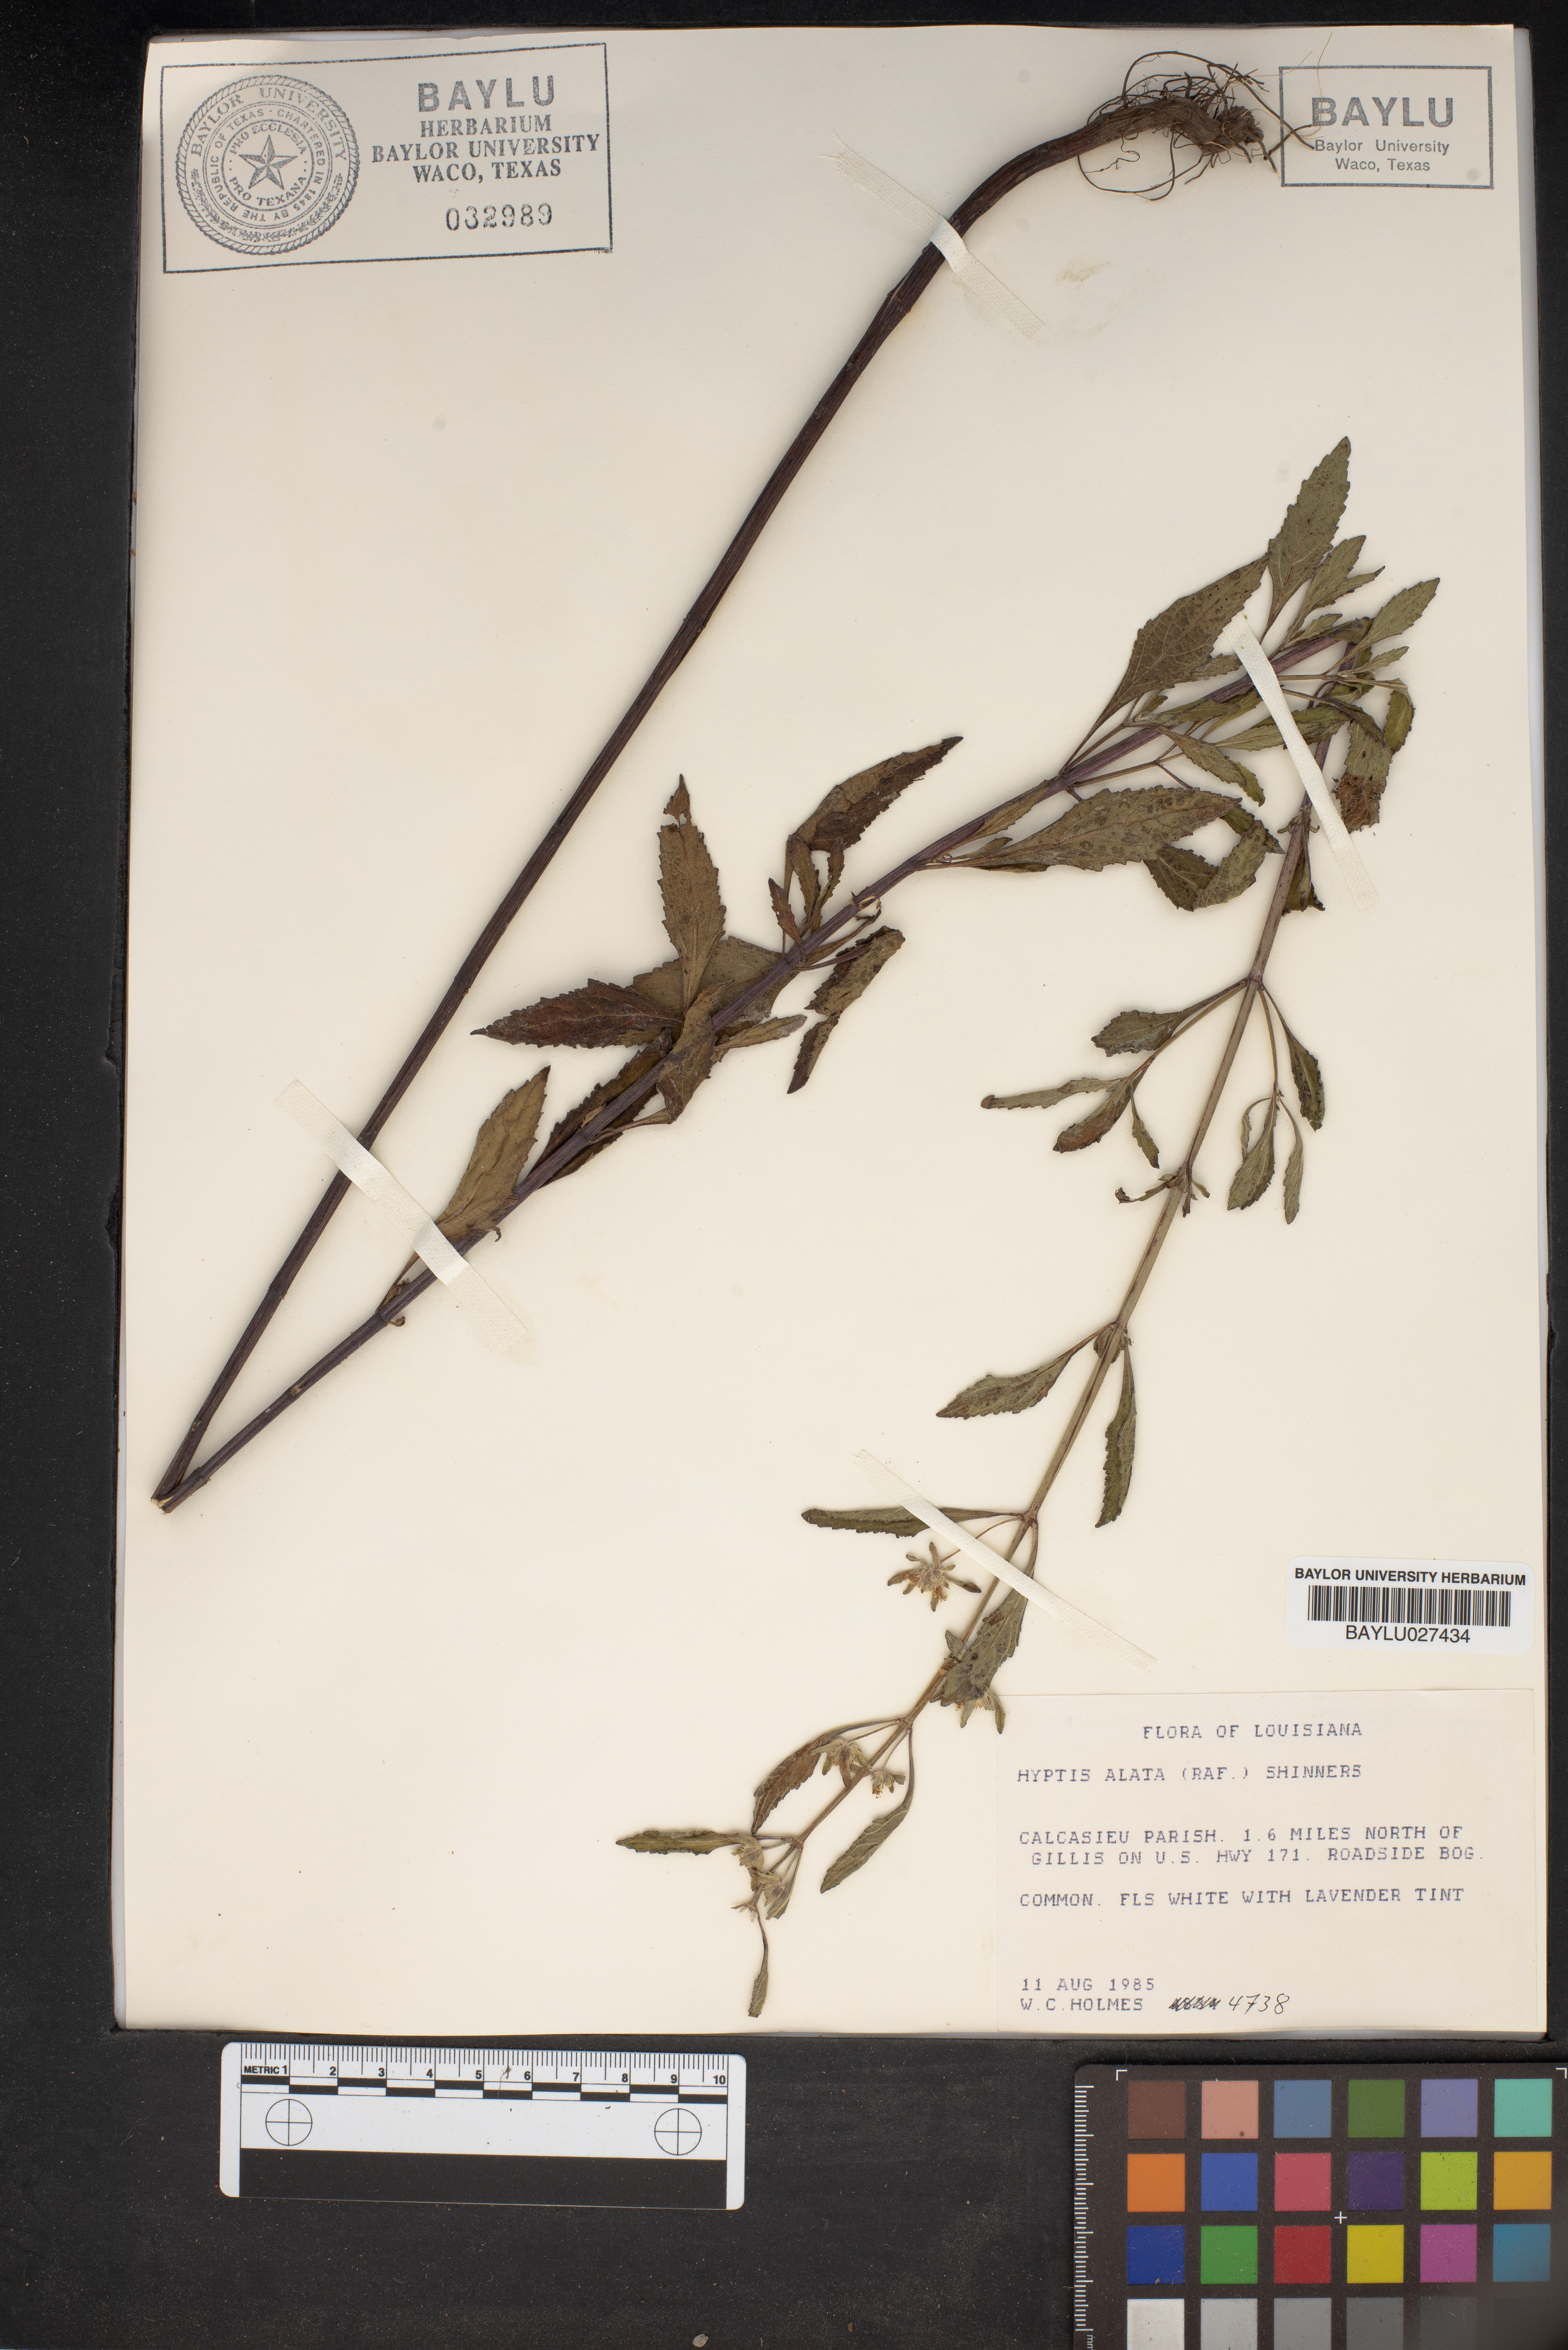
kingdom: Plantae
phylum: Tracheophyta
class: Magnoliopsida
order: Lamiales
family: Lamiaceae
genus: Hyptis
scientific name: Hyptis alata
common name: Cluster bush-mint
